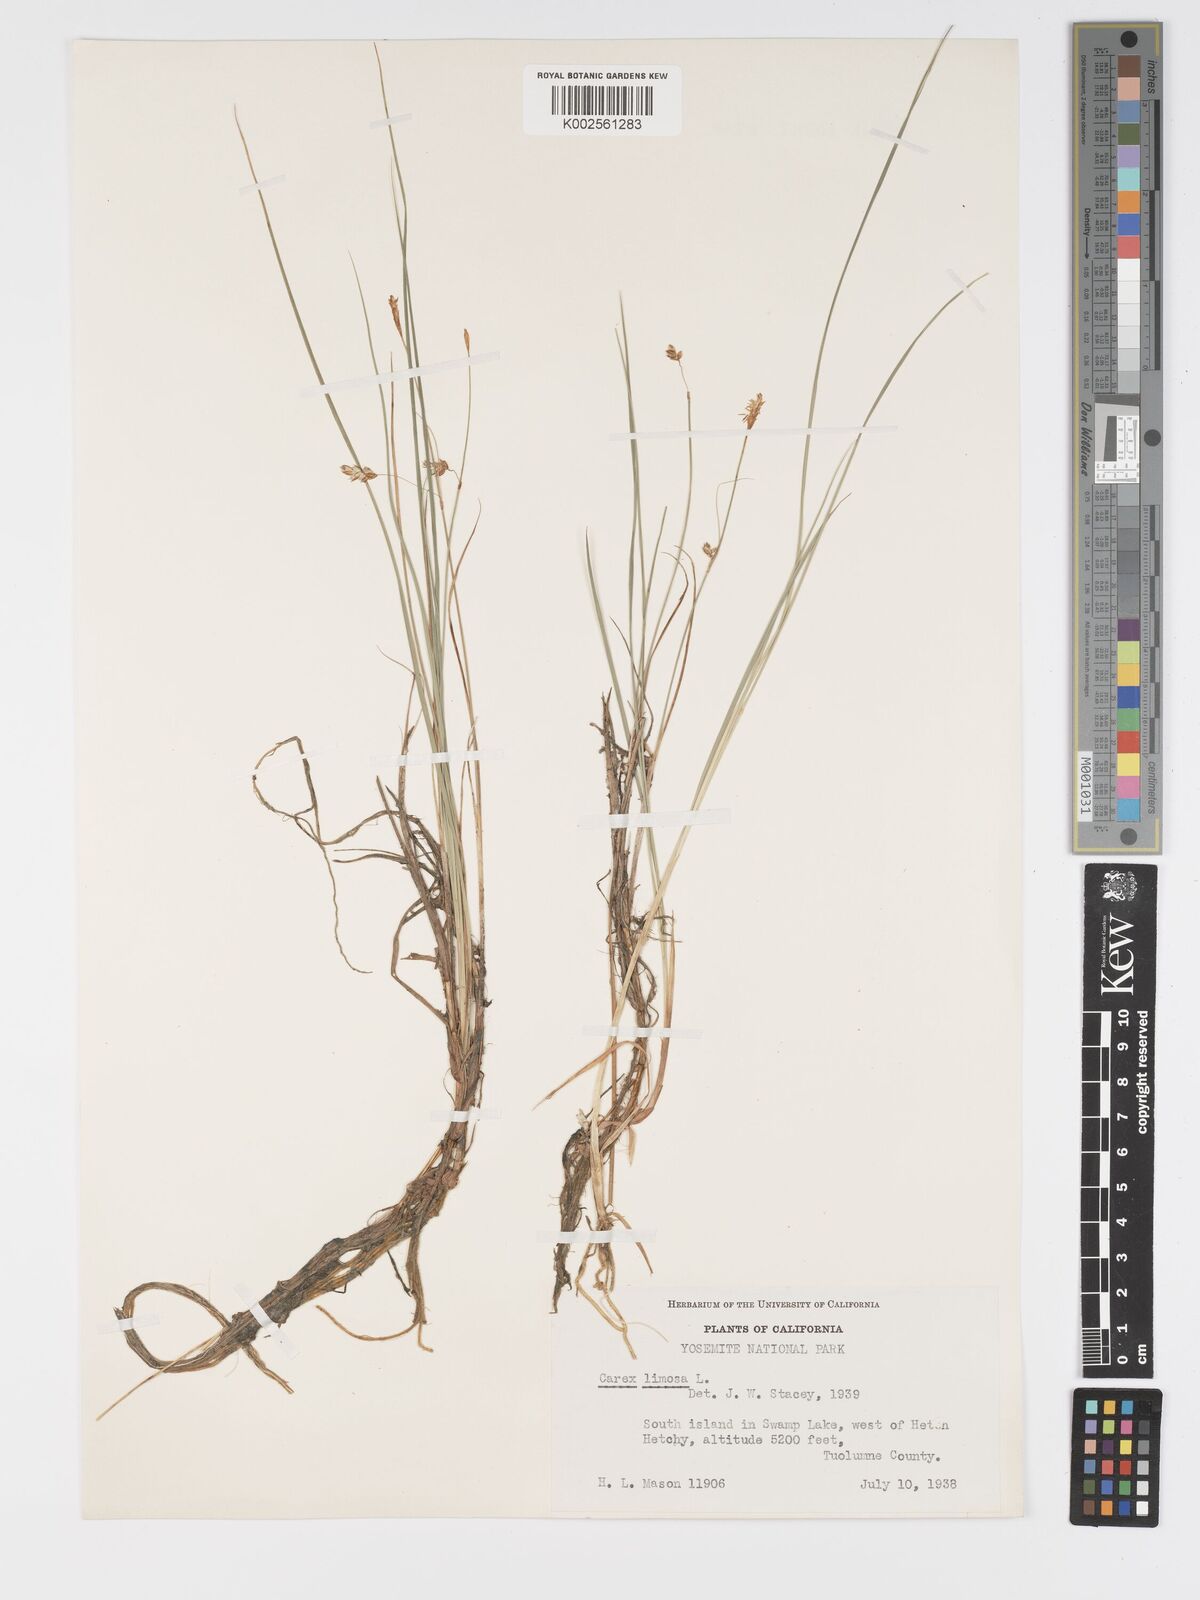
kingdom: Plantae
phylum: Tracheophyta
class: Liliopsida
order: Poales
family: Cyperaceae
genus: Carex
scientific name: Carex limosa
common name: Bog sedge
